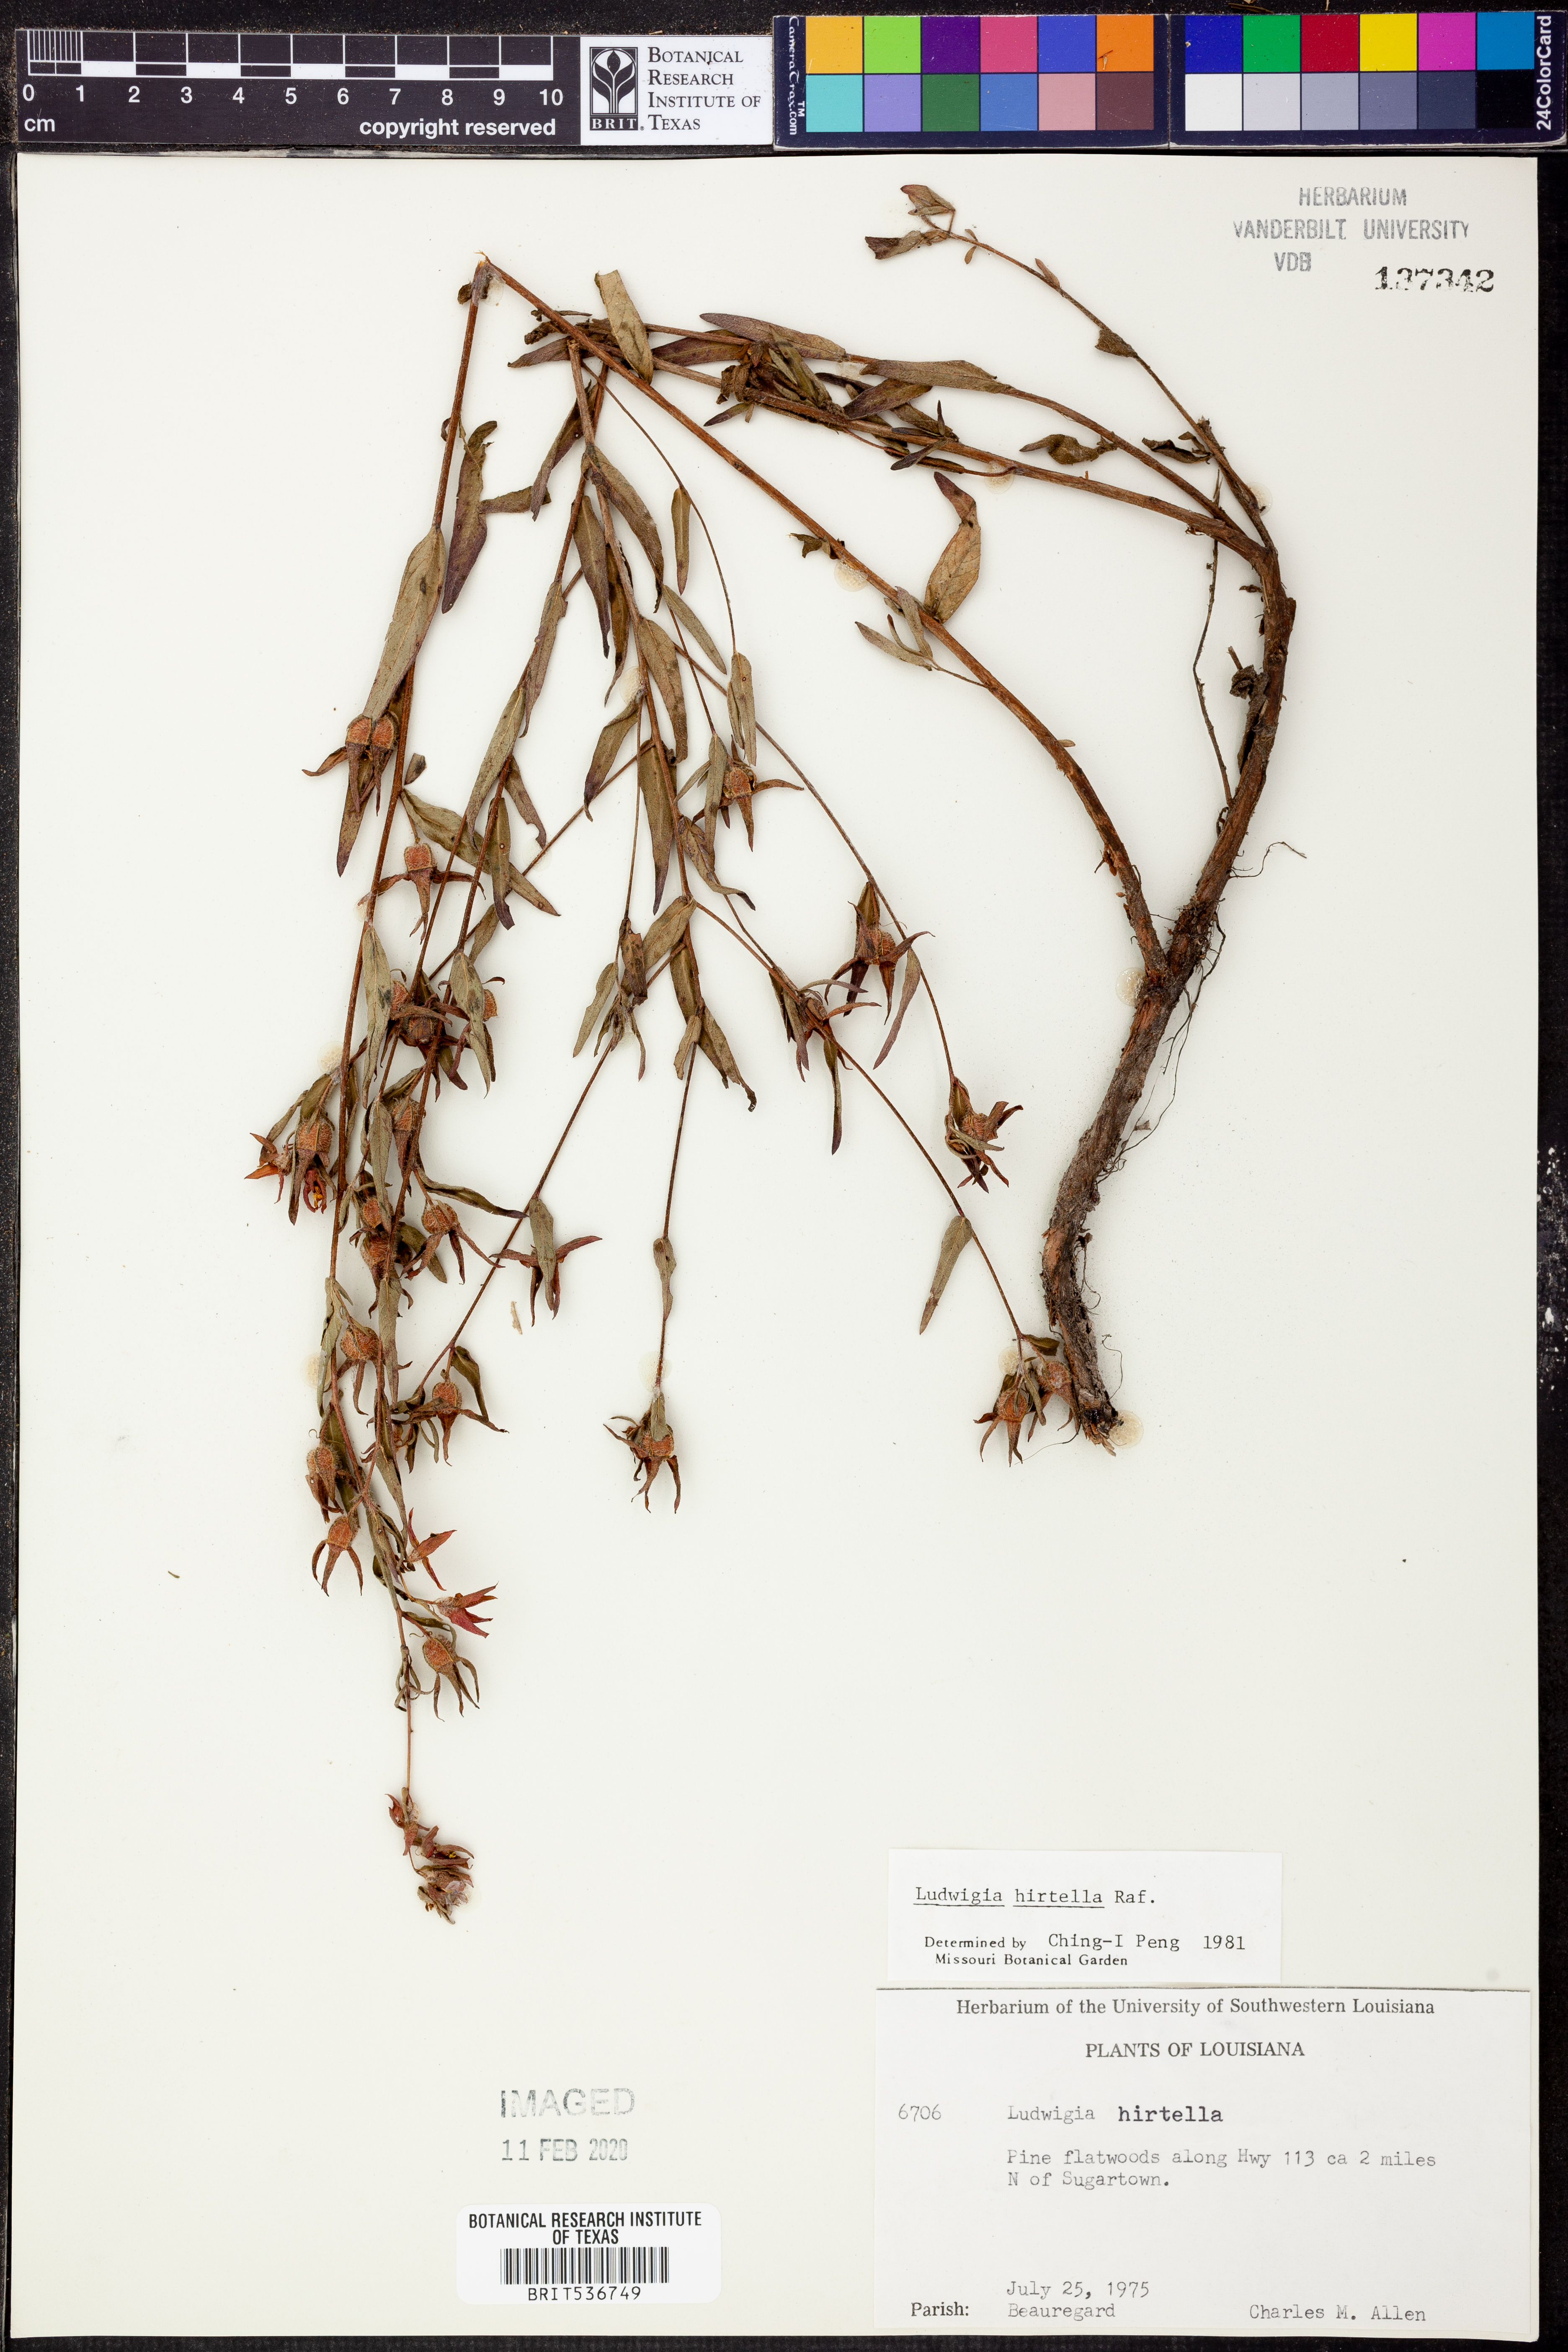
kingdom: Plantae
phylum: Tracheophyta
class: Magnoliopsida
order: Myrtales
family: Onagraceae
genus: Ludwigia
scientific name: Ludwigia hirtella
